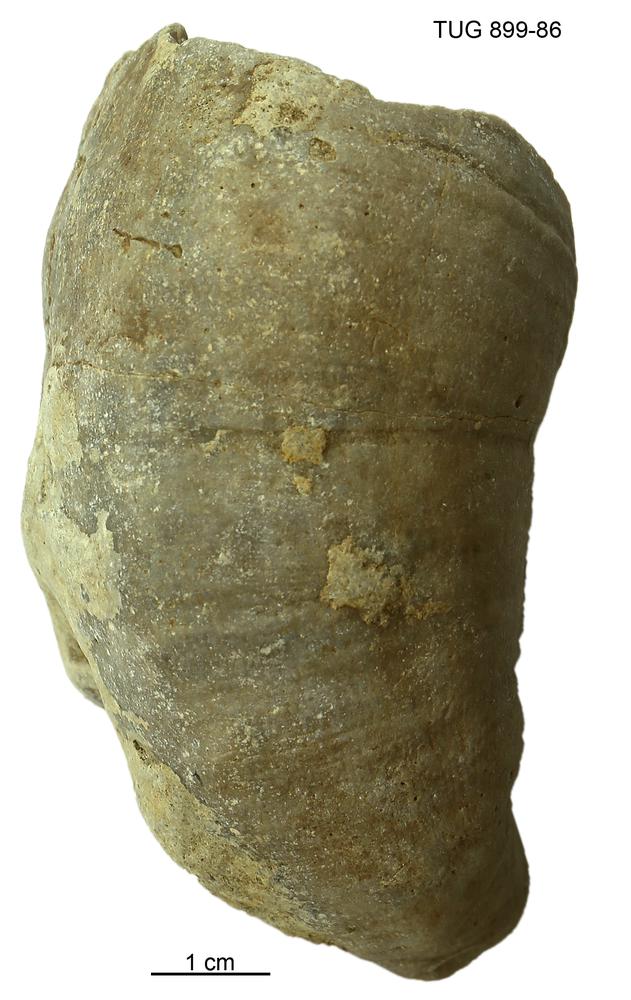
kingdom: Animalia
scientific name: Animalia
